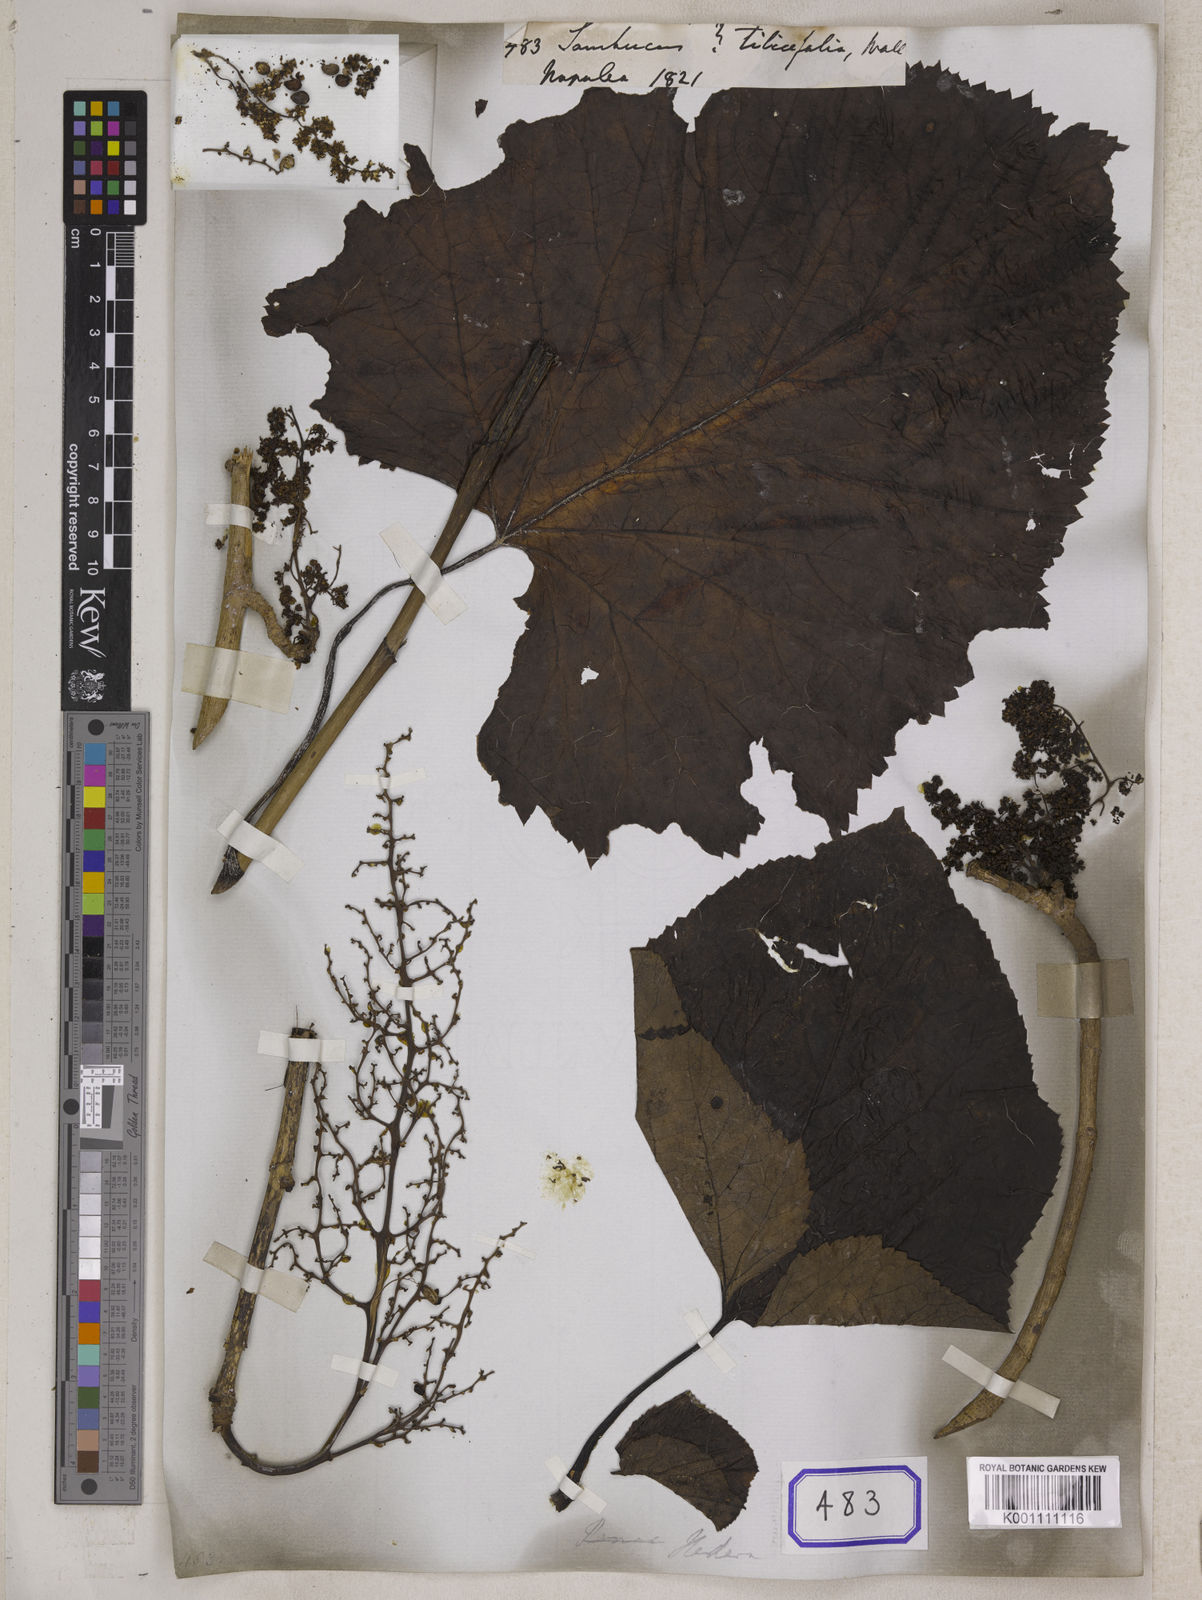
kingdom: Plantae
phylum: Tracheophyta
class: Magnoliopsida
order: Dipsacales
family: Viburnaceae
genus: Sambucus
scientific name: Sambucus
